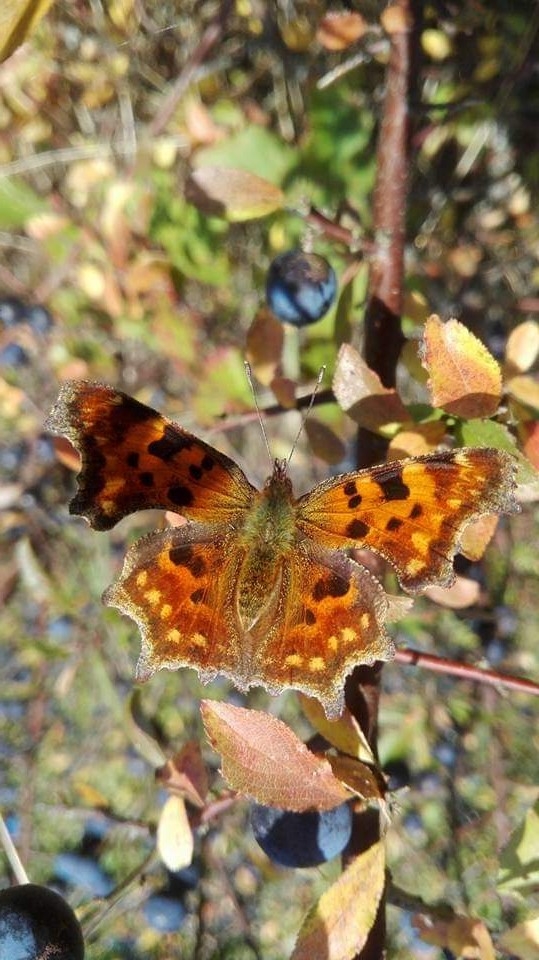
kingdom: Animalia
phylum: Arthropoda
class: Insecta
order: Lepidoptera
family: Nymphalidae
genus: Polygonia
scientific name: Polygonia c-album
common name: Det hvide C
